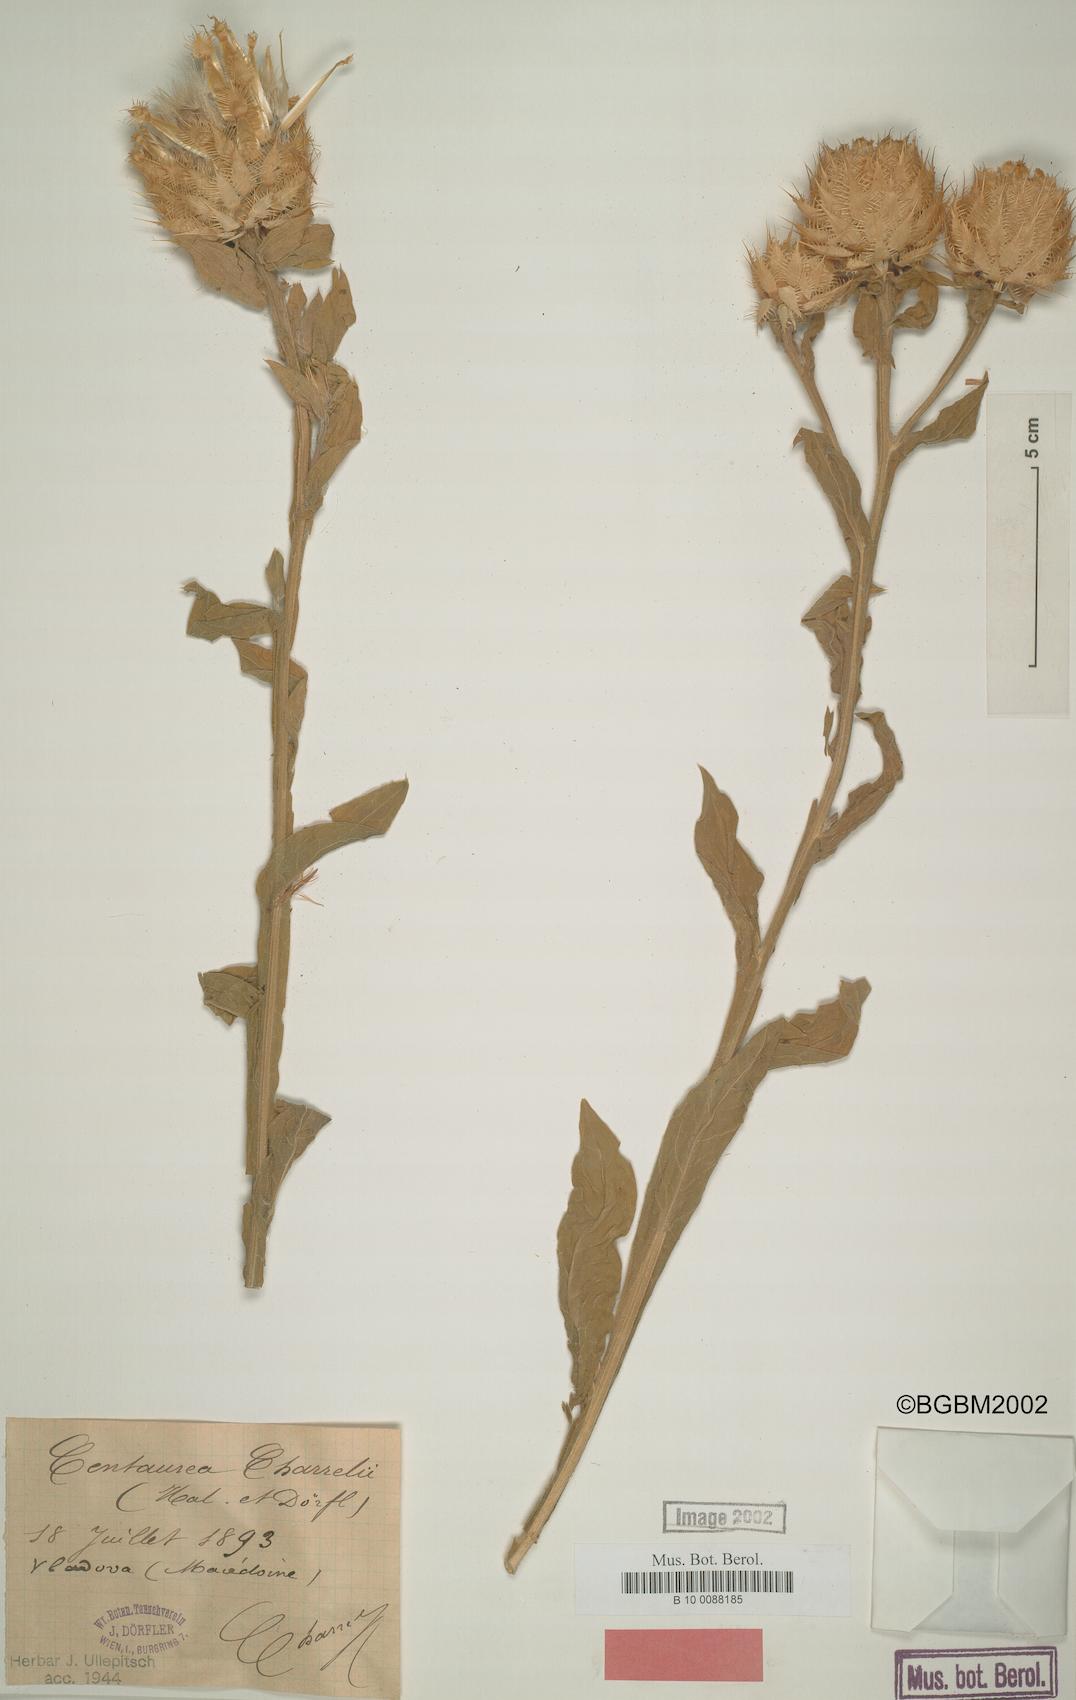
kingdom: Plantae
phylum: Tracheophyta
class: Magnoliopsida
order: Asterales
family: Asteraceae
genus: Centaurea
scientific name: Centaurea charrelii
